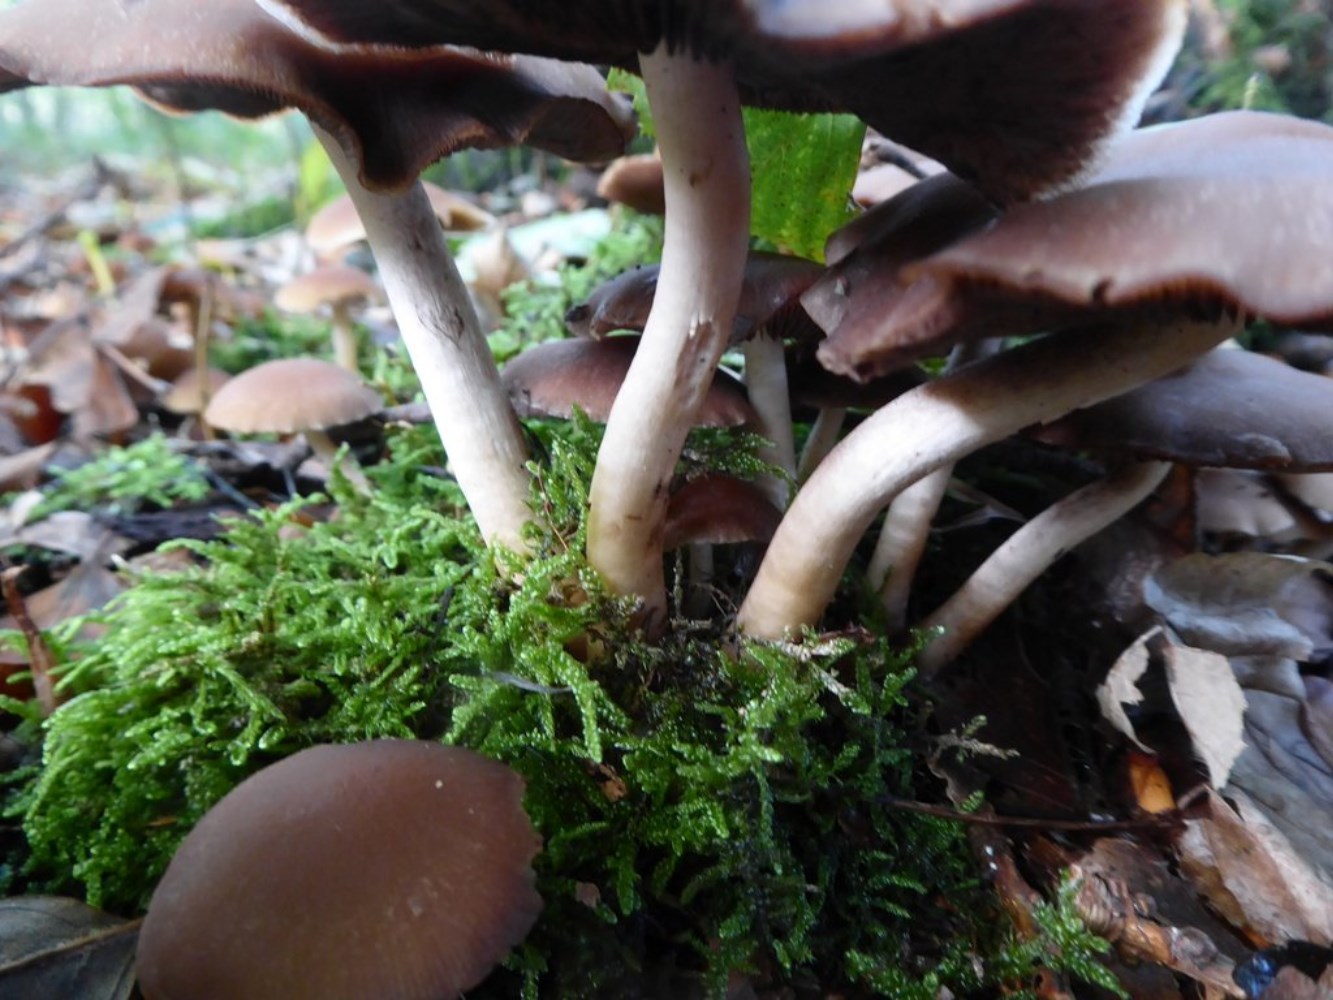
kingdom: Fungi
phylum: Basidiomycota
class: Agaricomycetes
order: Agaricales
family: Psathyrellaceae
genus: Psathyrella
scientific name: Psathyrella piluliformis
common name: lysstokket mørkhat
